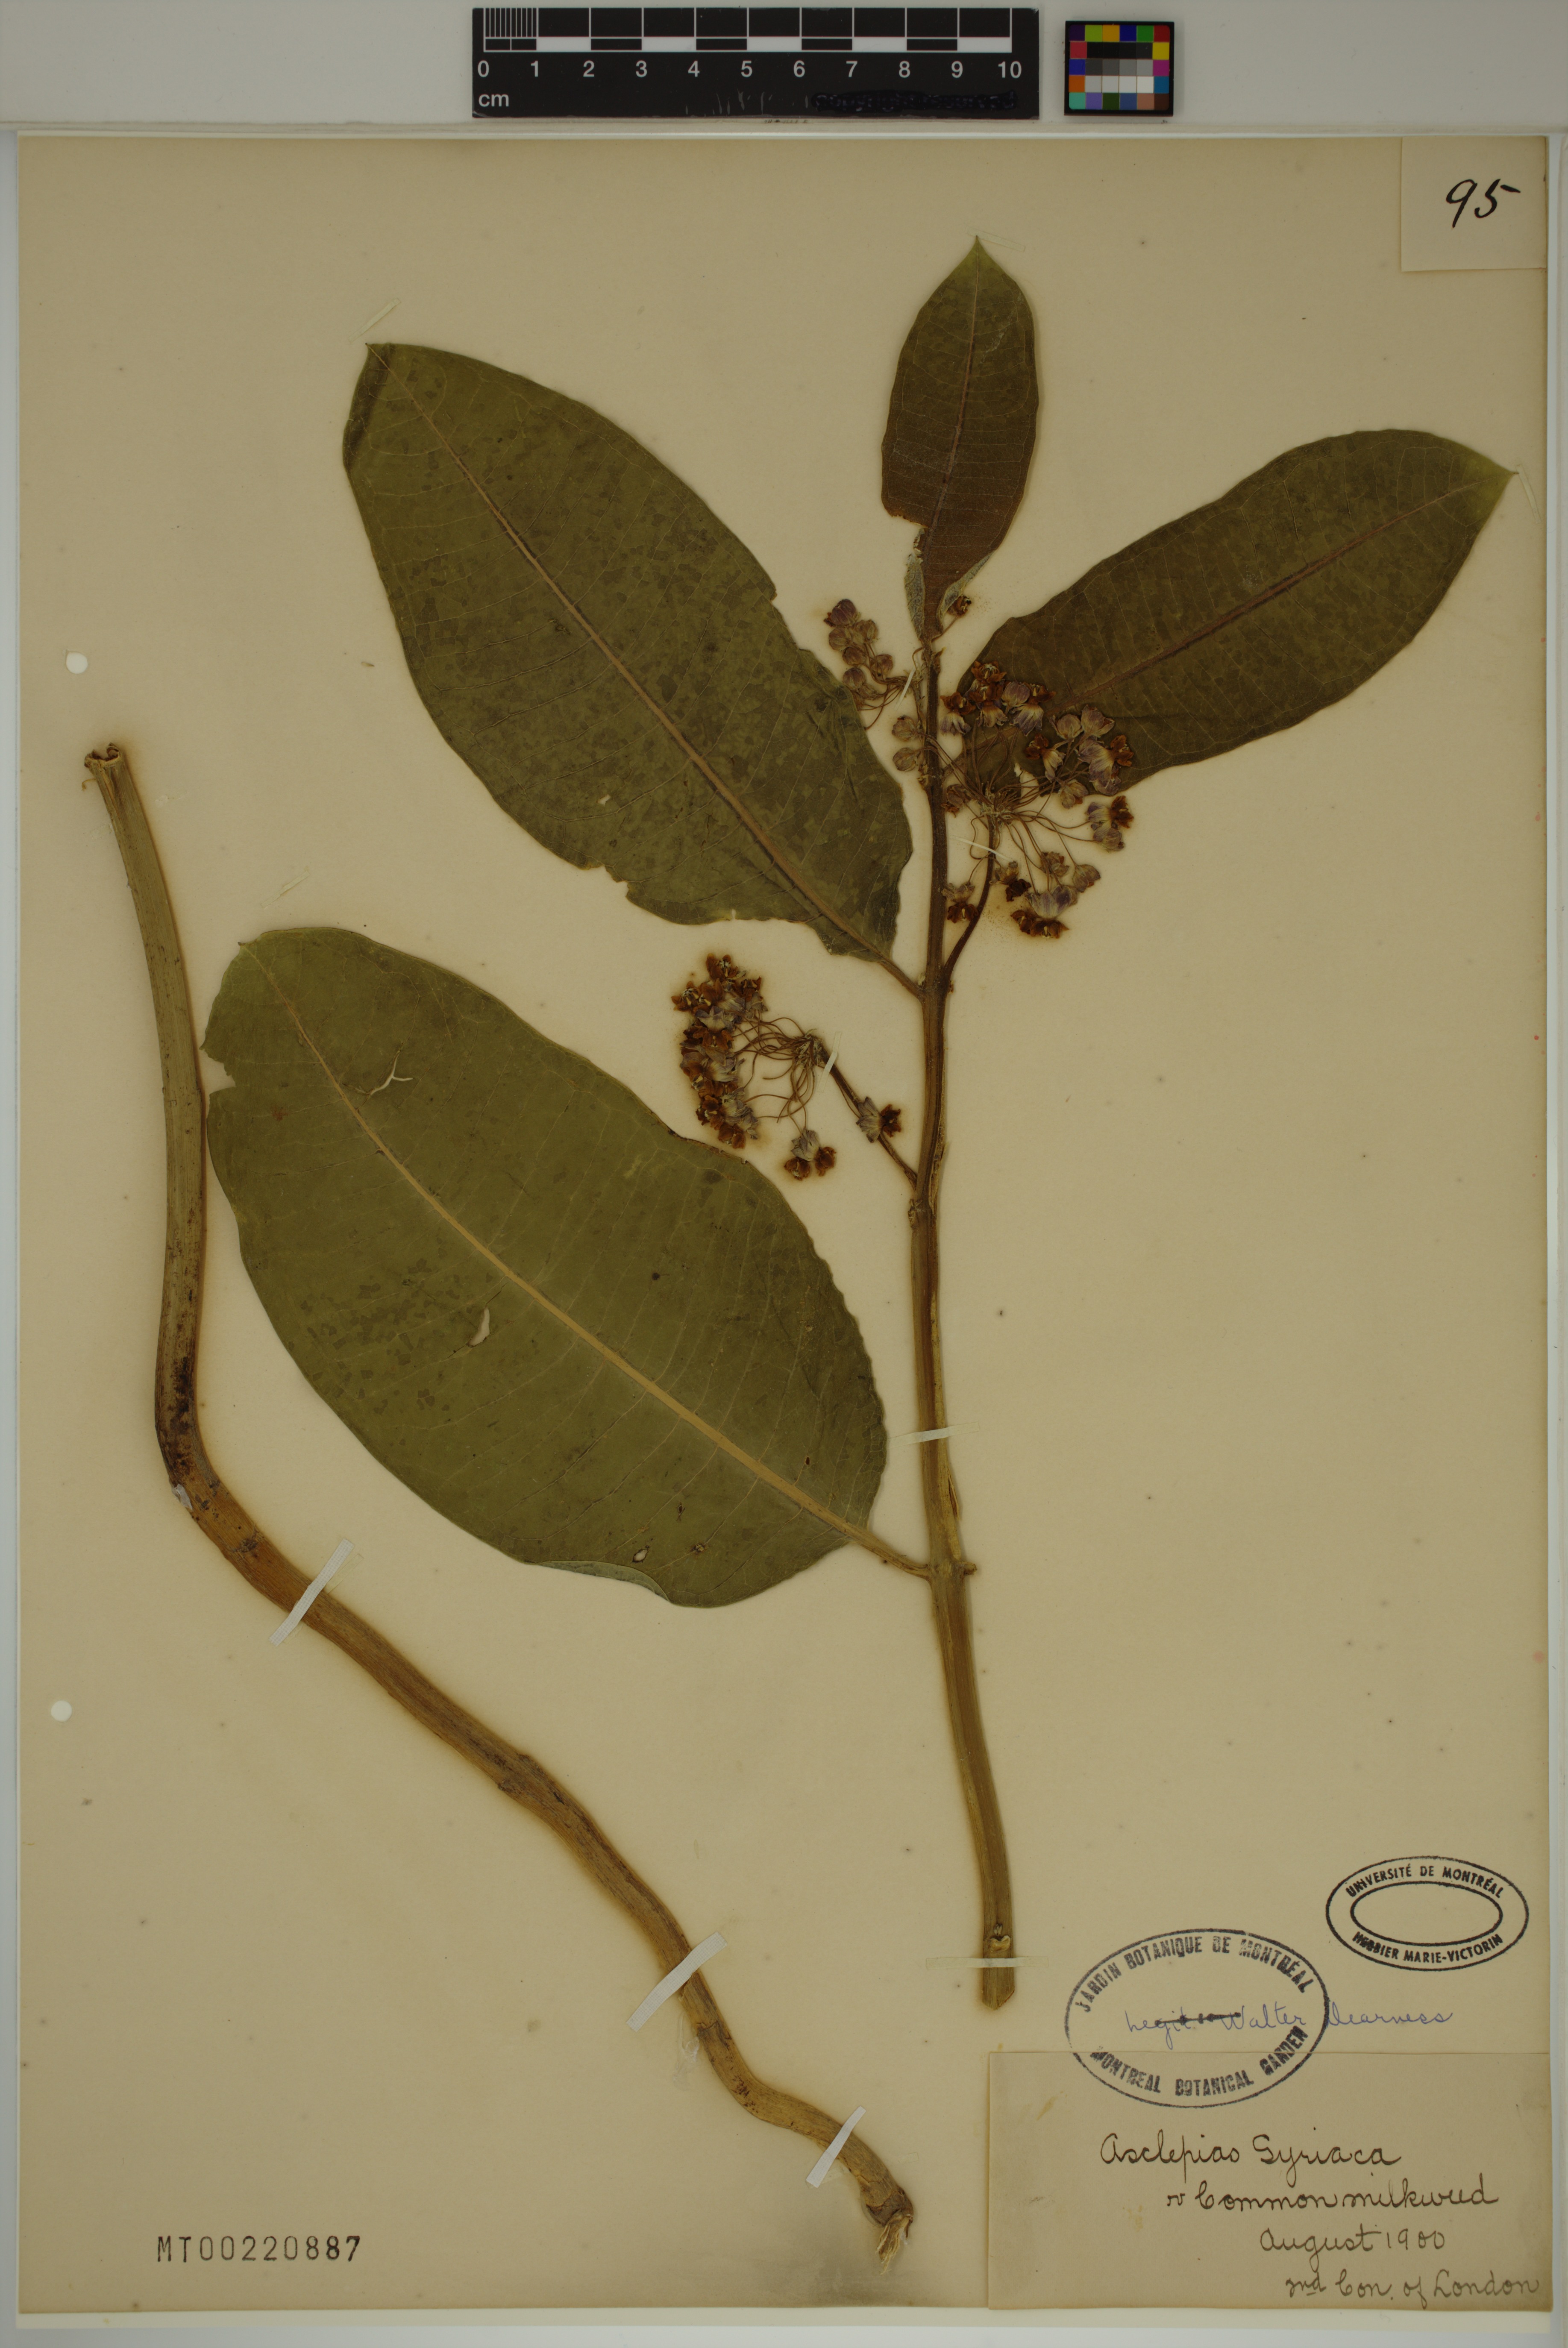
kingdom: Plantae
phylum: Tracheophyta
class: Magnoliopsida
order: Gentianales
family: Apocynaceae
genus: Asclepias
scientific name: Asclepias syriaca
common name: Common milkweed
